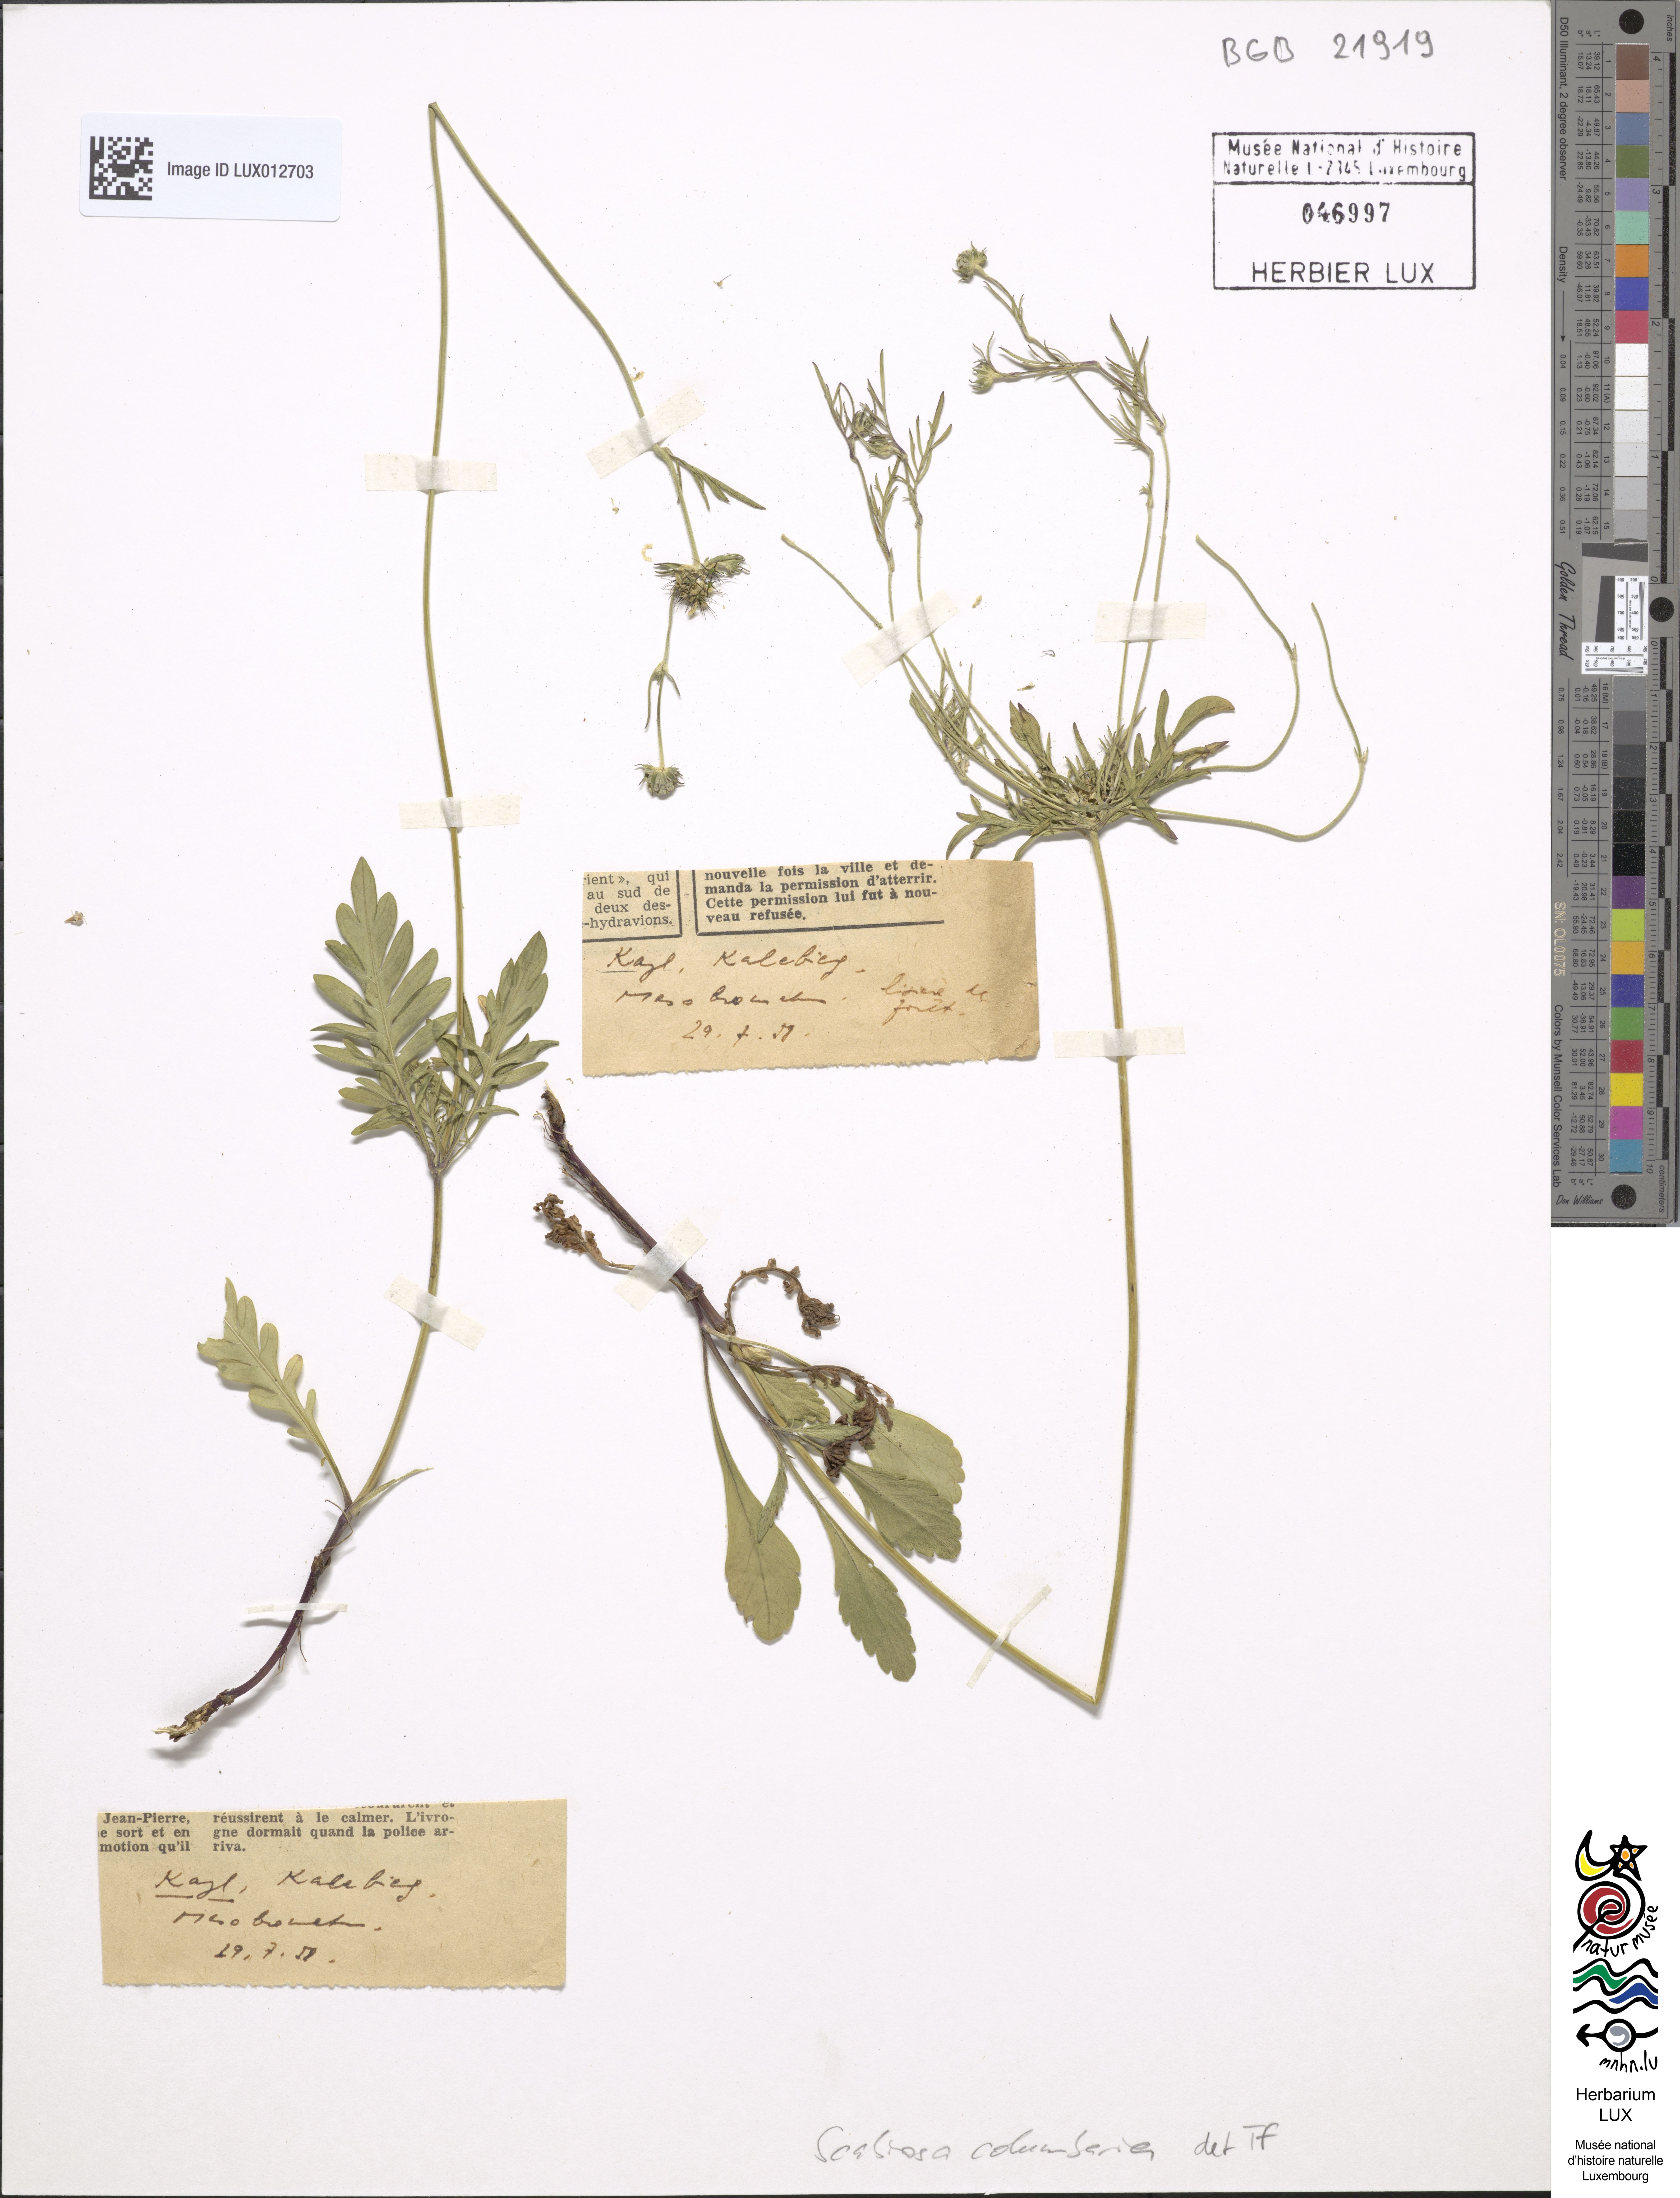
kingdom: Plantae
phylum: Tracheophyta
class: Magnoliopsida
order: Dipsacales
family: Caprifoliaceae
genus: Scabiosa
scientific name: Scabiosa columbaria
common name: Small scabious
